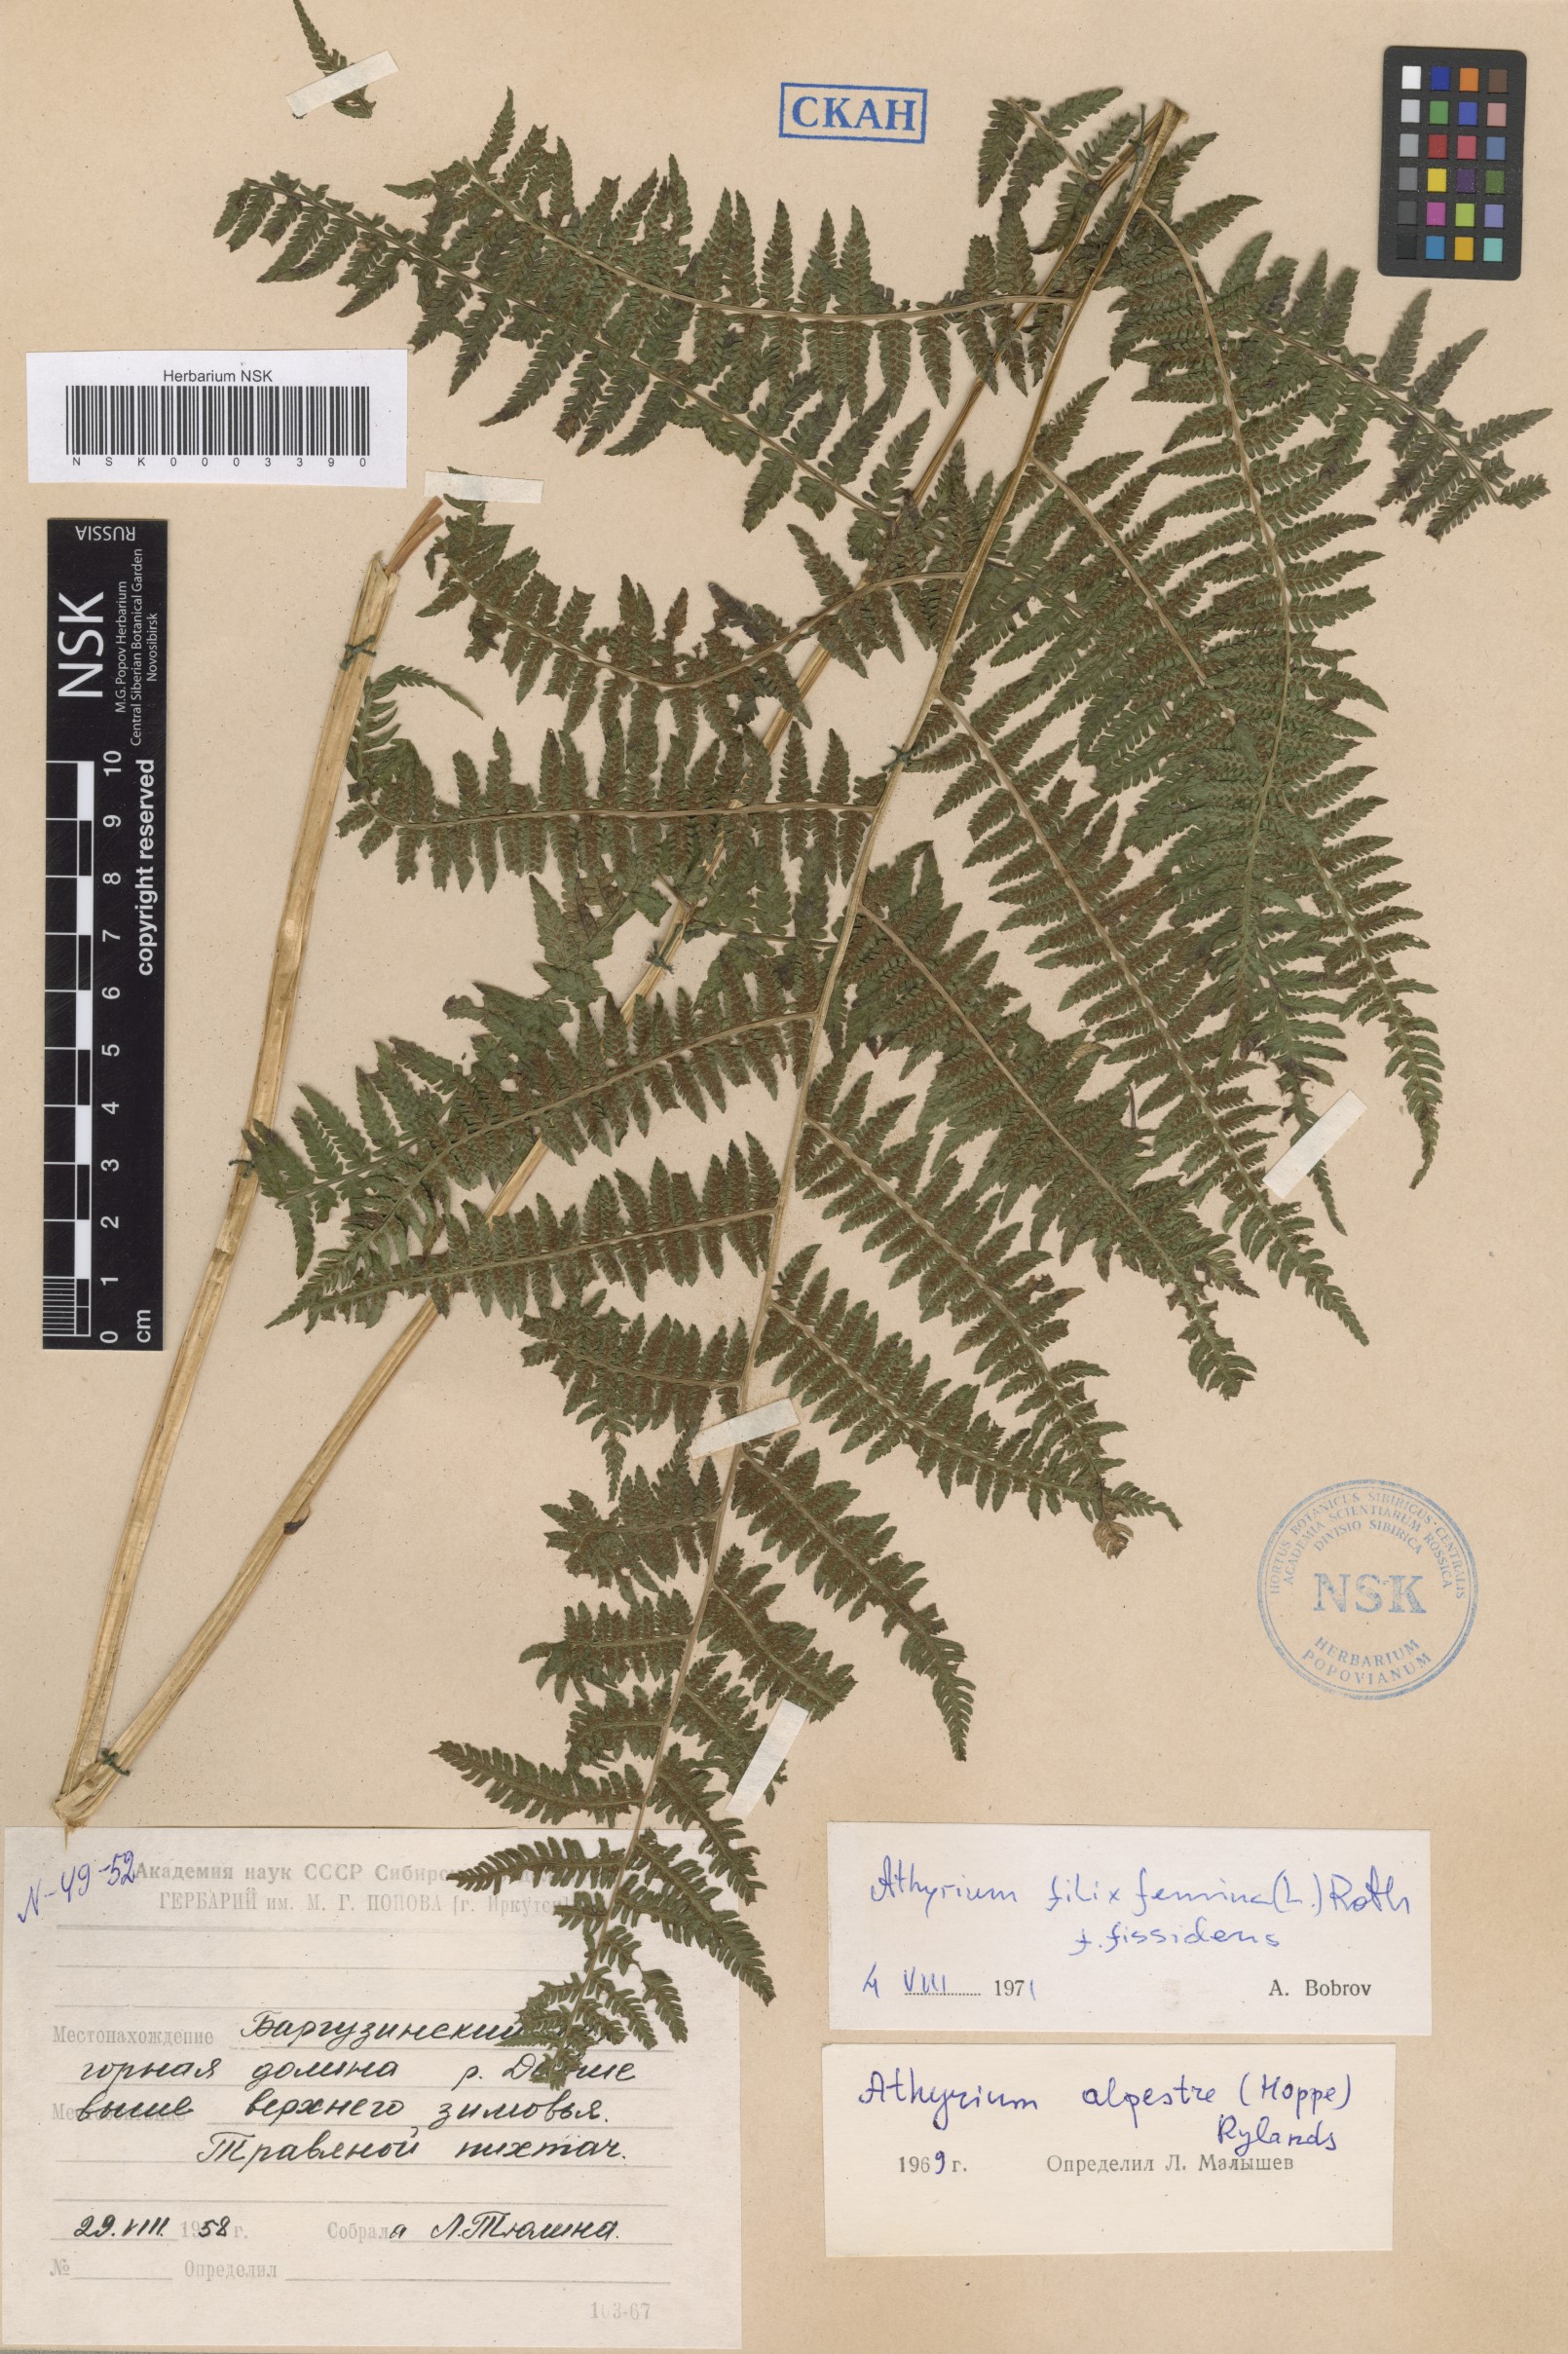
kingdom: Plantae
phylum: Tracheophyta
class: Polypodiopsida
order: Polypodiales
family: Athyriaceae
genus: Athyrium
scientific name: Athyrium filix-femina
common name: Lady fern
